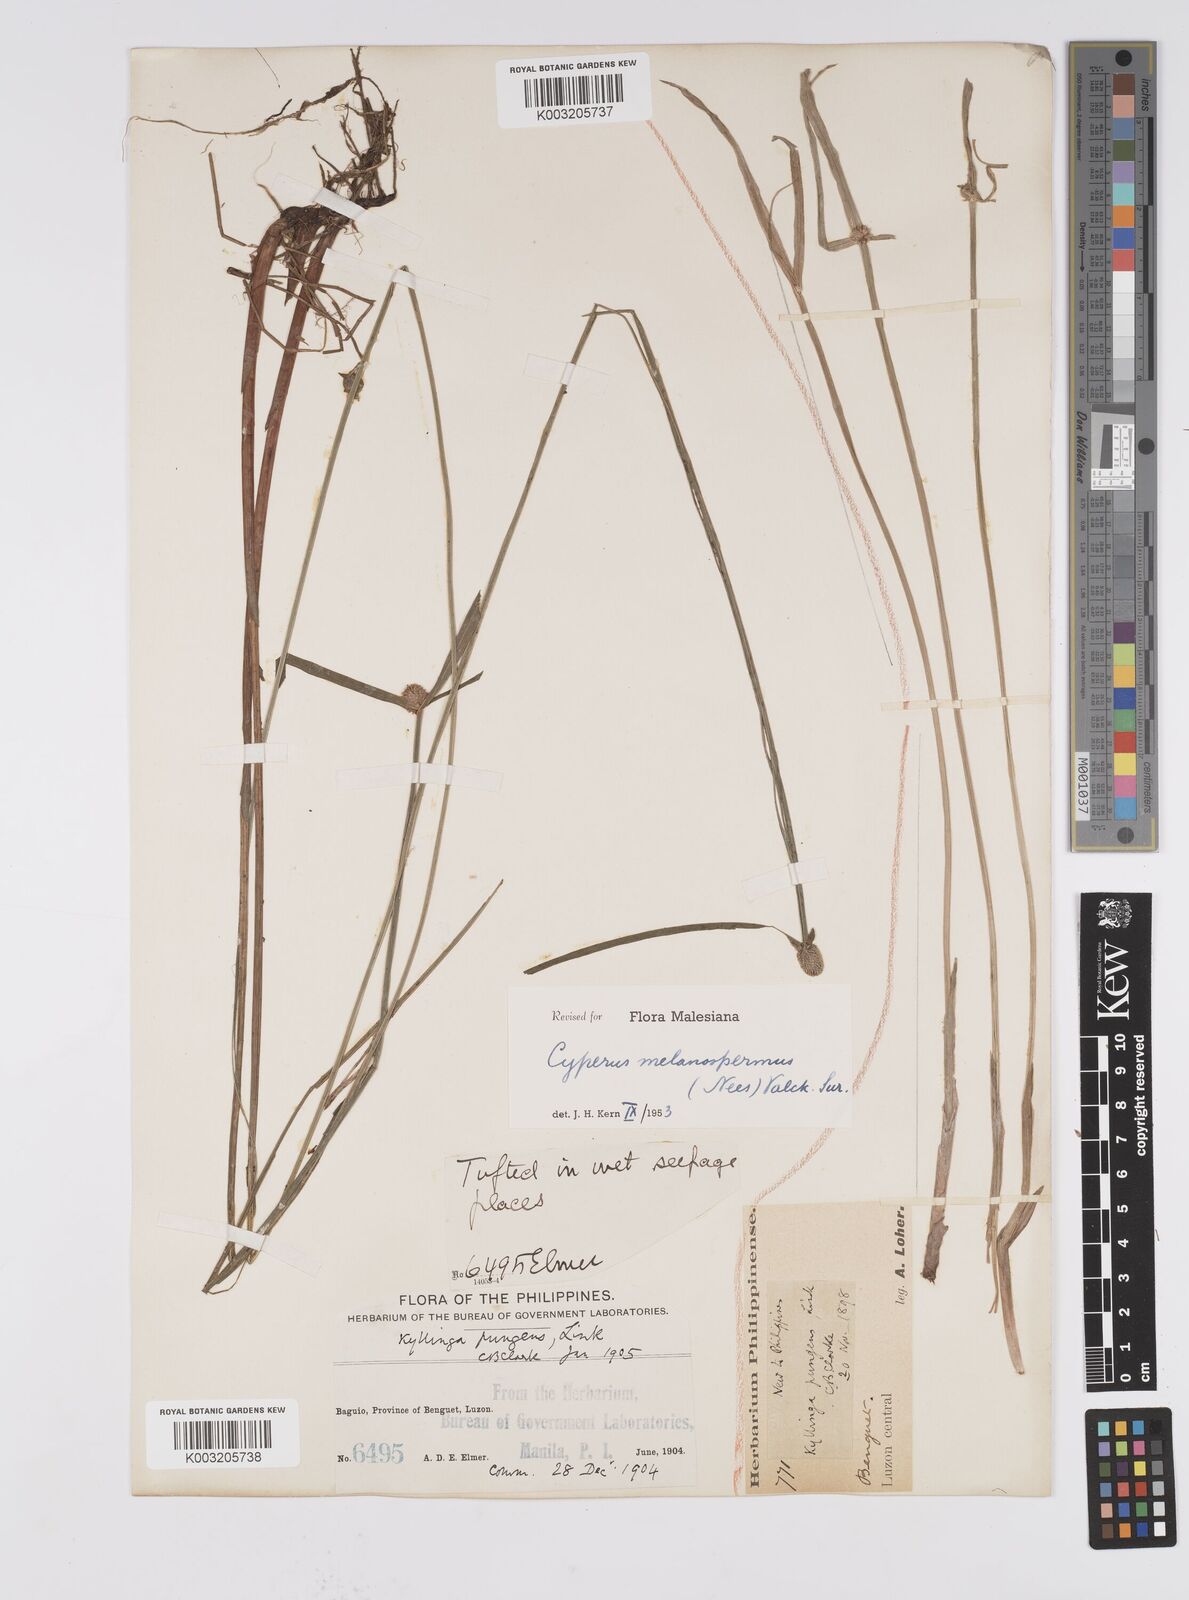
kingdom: Plantae
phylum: Tracheophyta
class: Liliopsida
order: Poales
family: Cyperaceae
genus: Cyperus
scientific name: Cyperus melanospermus
